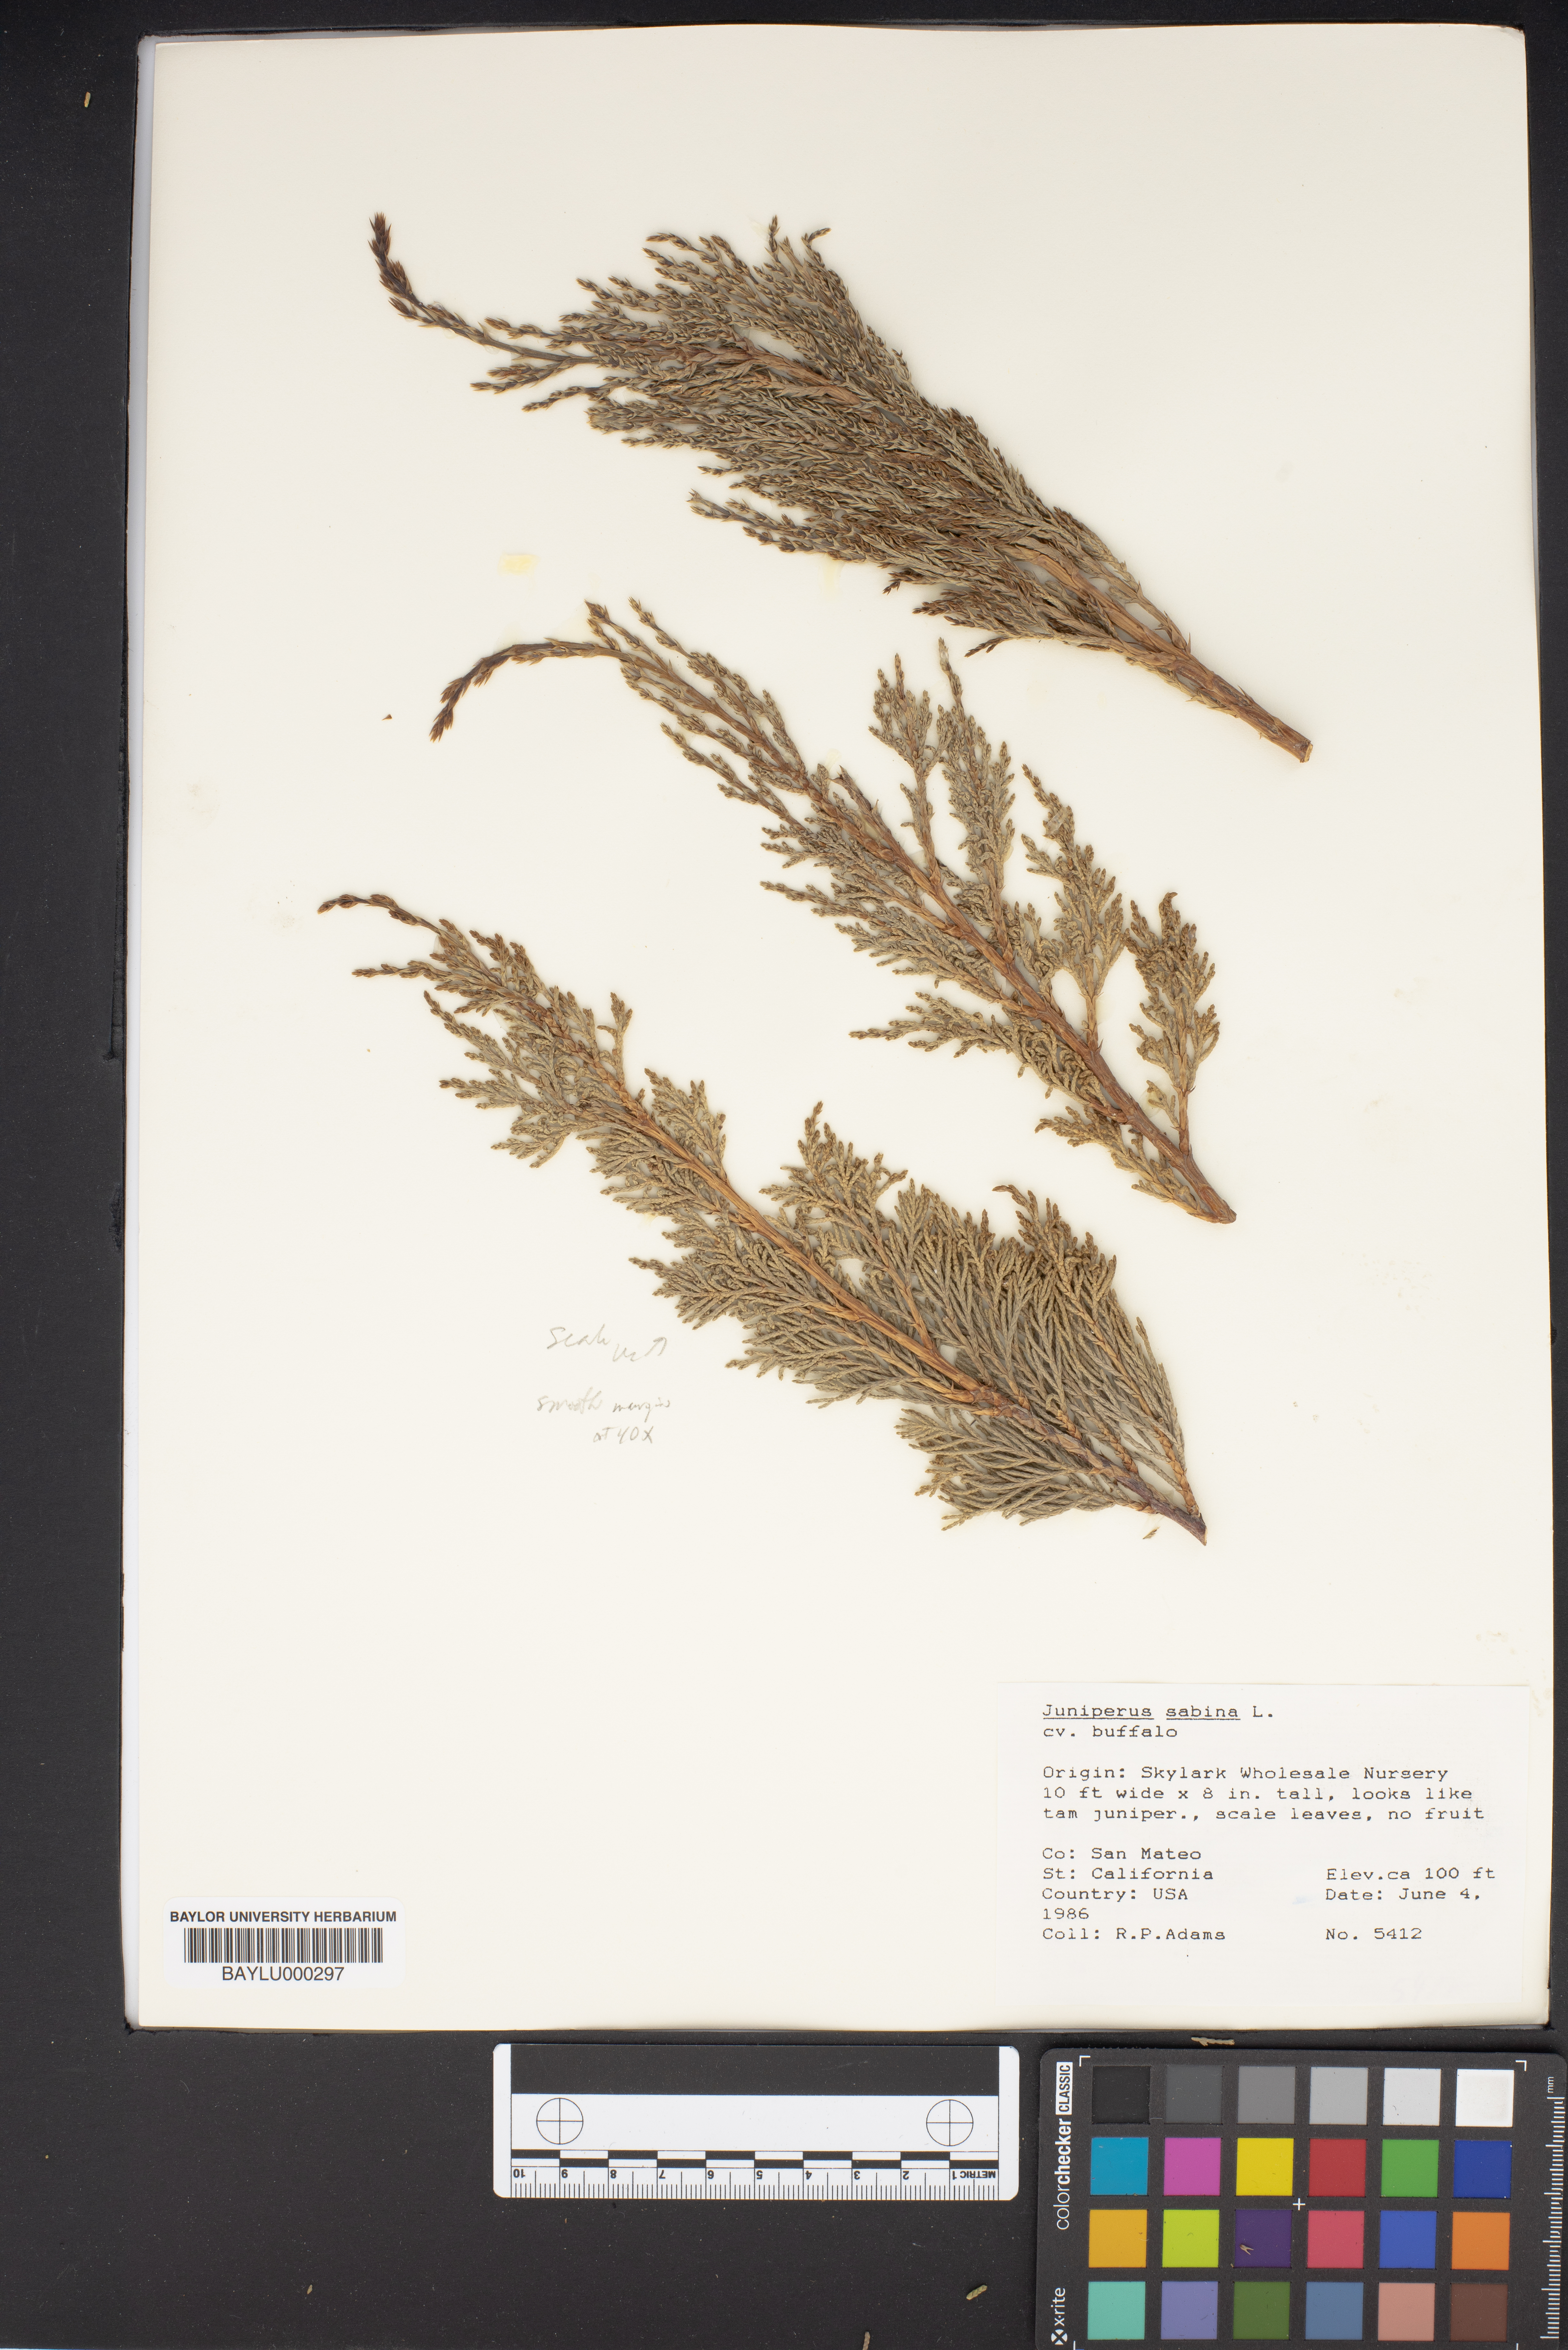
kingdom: Plantae
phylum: Tracheophyta
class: Pinopsida
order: Pinales
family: Cupressaceae
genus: Juniperus
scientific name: Juniperus sabina
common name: Savin
